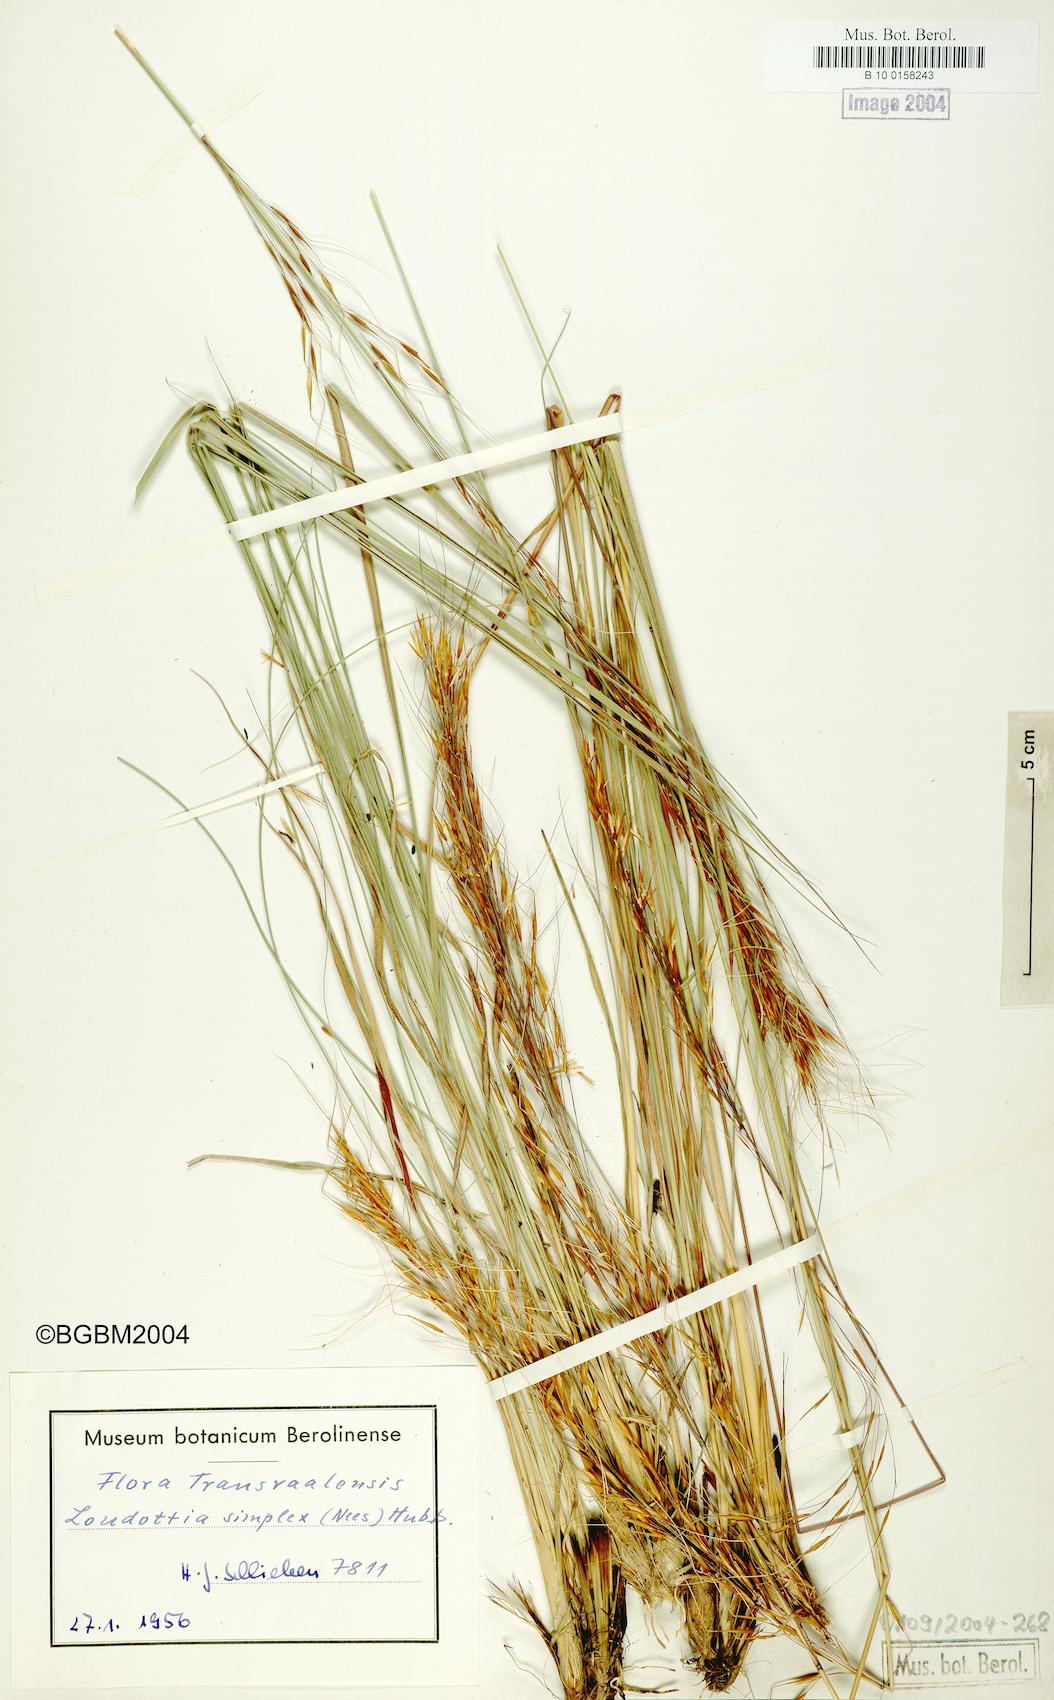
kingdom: Plantae
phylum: Tracheophyta
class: Liliopsida
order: Poales
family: Poaceae
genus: Loudetia
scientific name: Loudetia simplex
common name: Common russet grass
